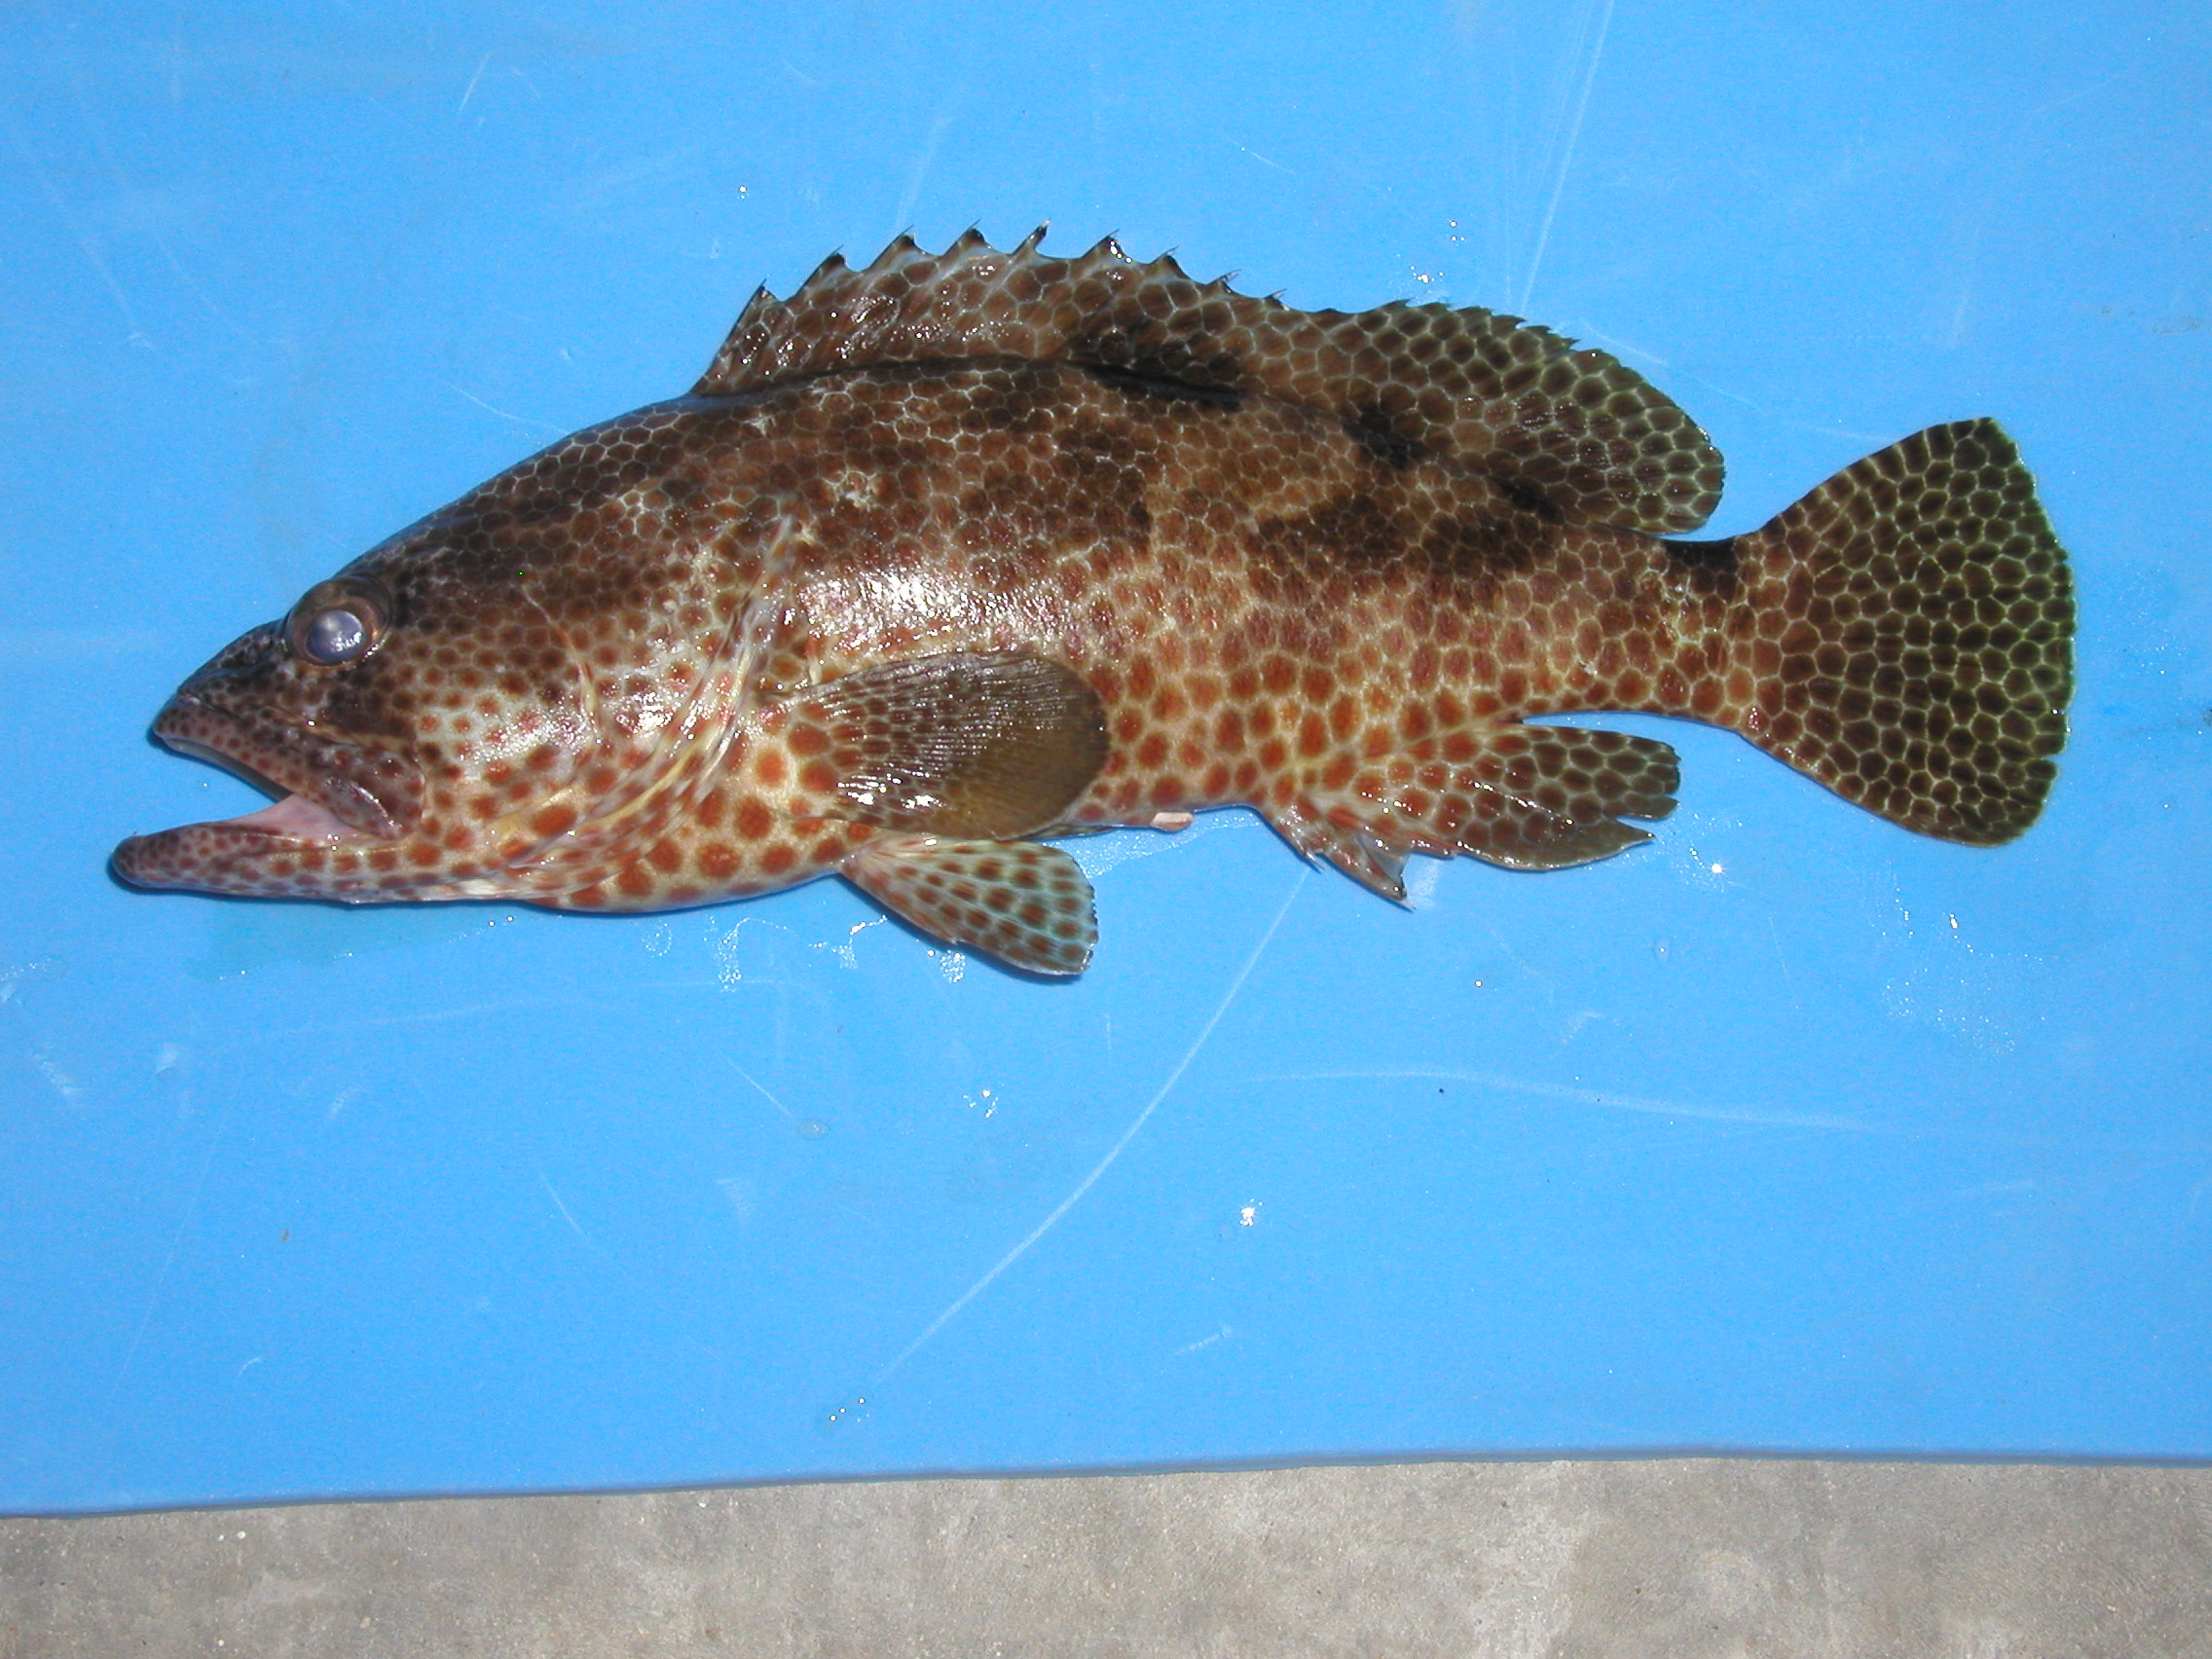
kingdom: Animalia
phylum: Chordata
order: Perciformes
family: Serranidae
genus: Epinephelus
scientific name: Epinephelus spilotoceps
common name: Foursaddle grouper
